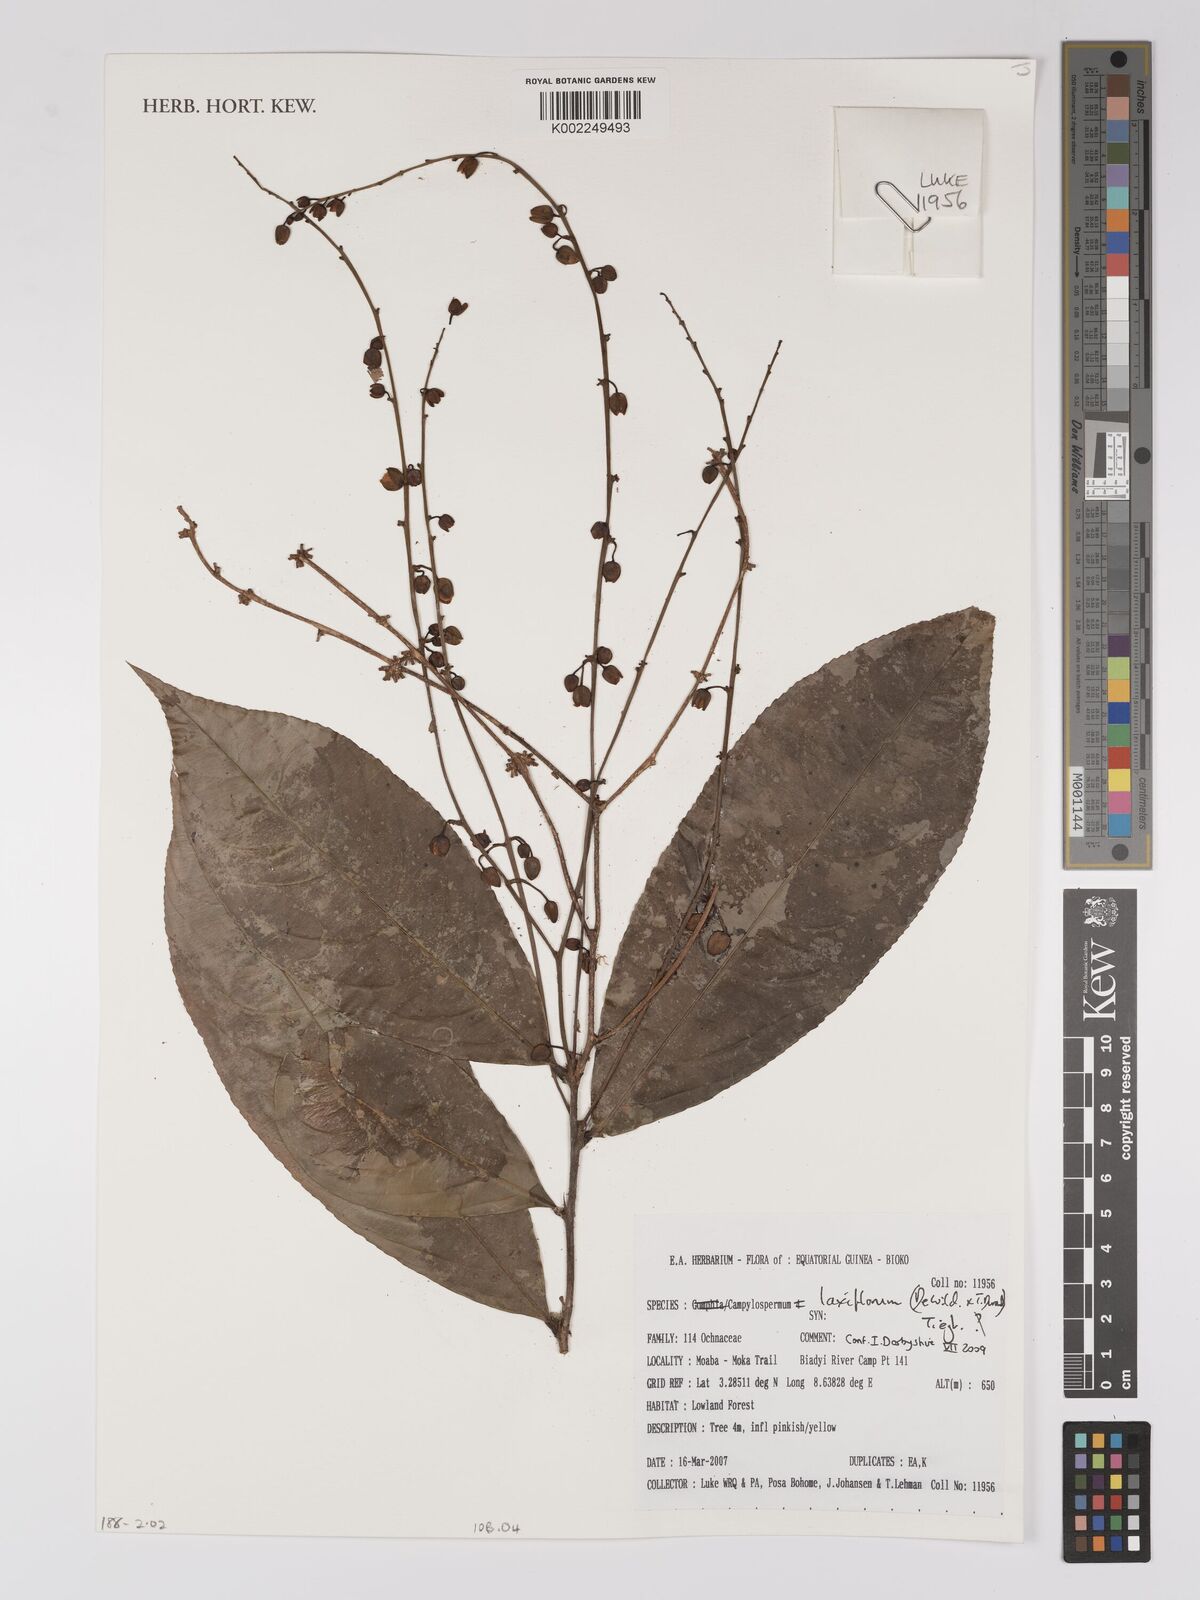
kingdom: Plantae
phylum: Tracheophyta
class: Magnoliopsida
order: Malpighiales
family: Ochnaceae
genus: Campylospermum
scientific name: Campylospermum laxiflorum
